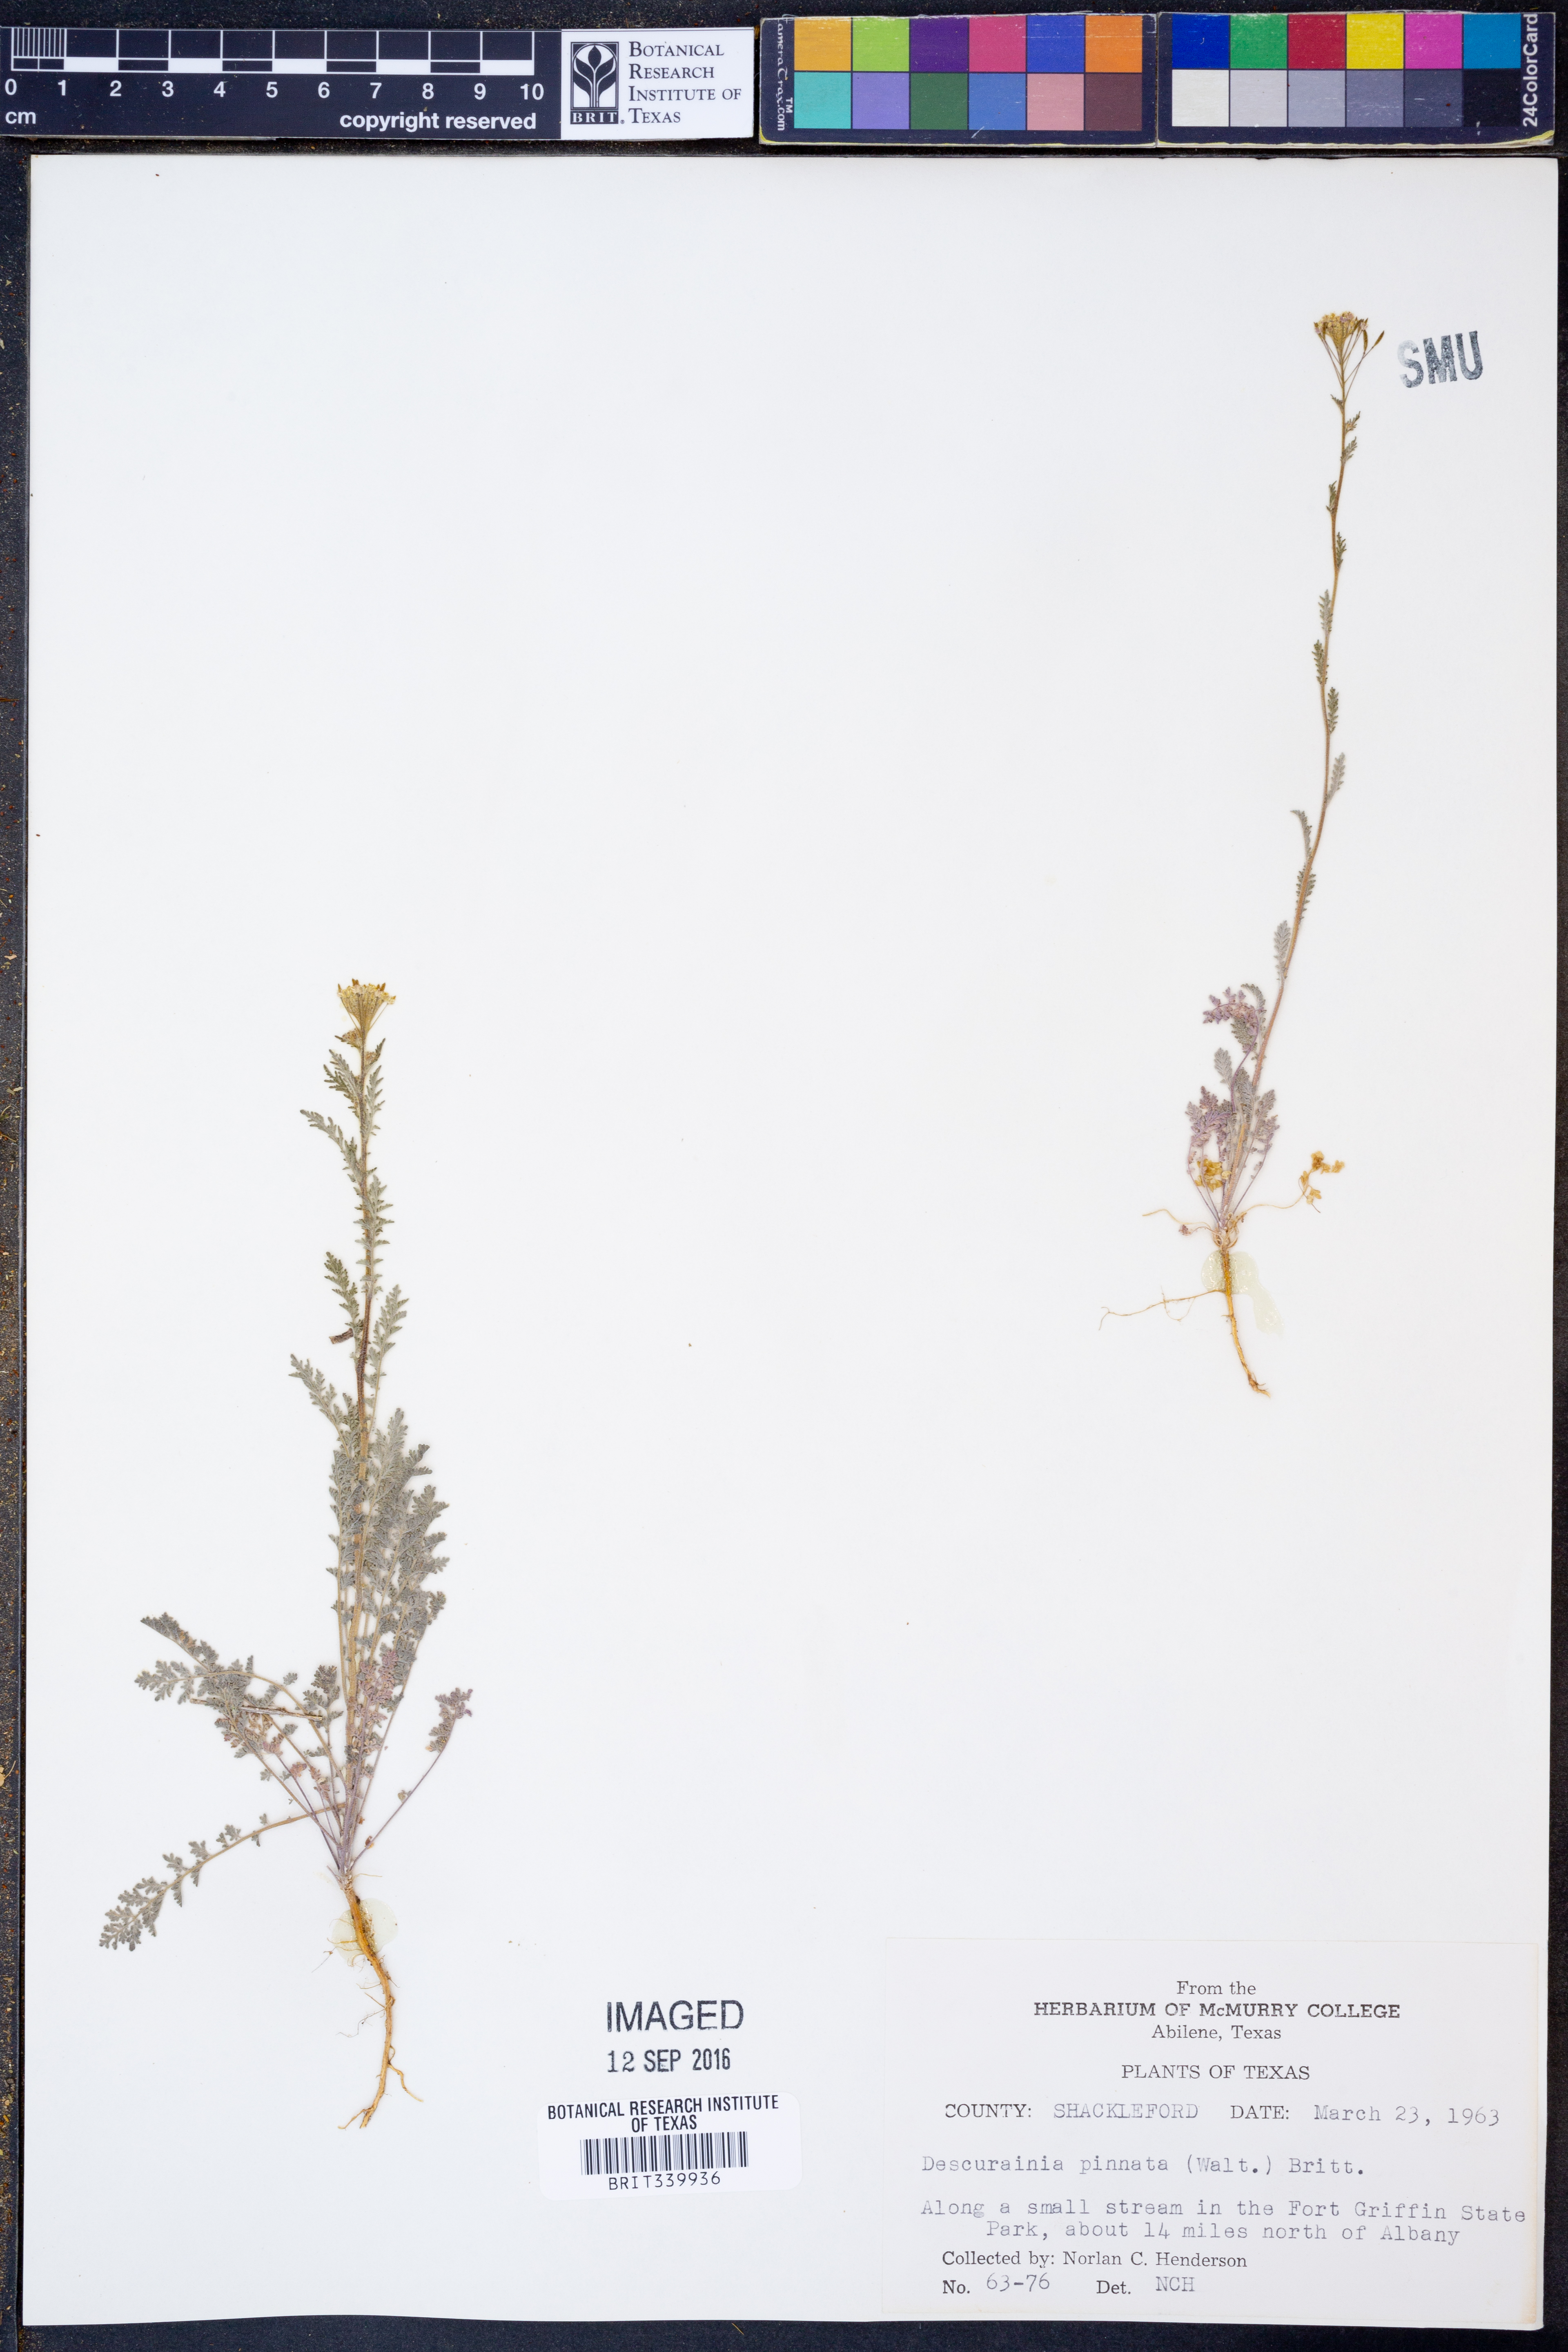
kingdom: Plantae
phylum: Tracheophyta
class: Magnoliopsida
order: Brassicales
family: Brassicaceae
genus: Descurainia
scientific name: Descurainia pinnata
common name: Western tansy mustard
